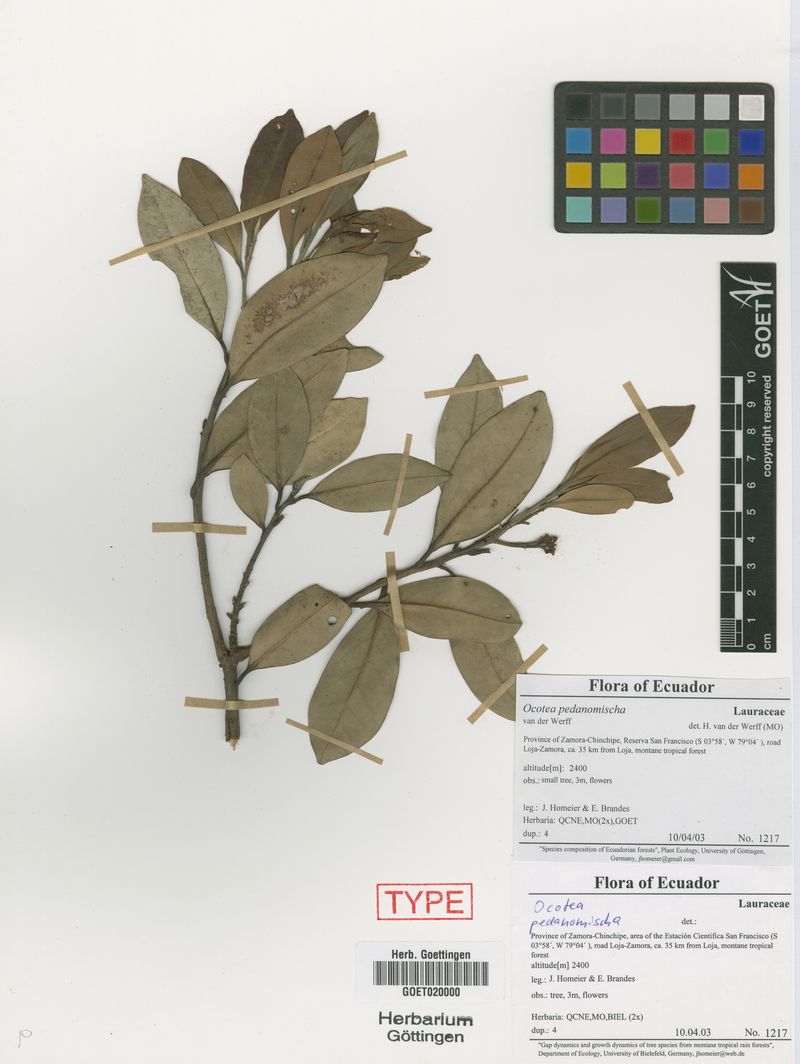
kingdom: Plantae
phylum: Tracheophyta
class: Magnoliopsida
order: Laurales
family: Lauraceae
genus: Ocotea
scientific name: Ocotea pedanomischa
